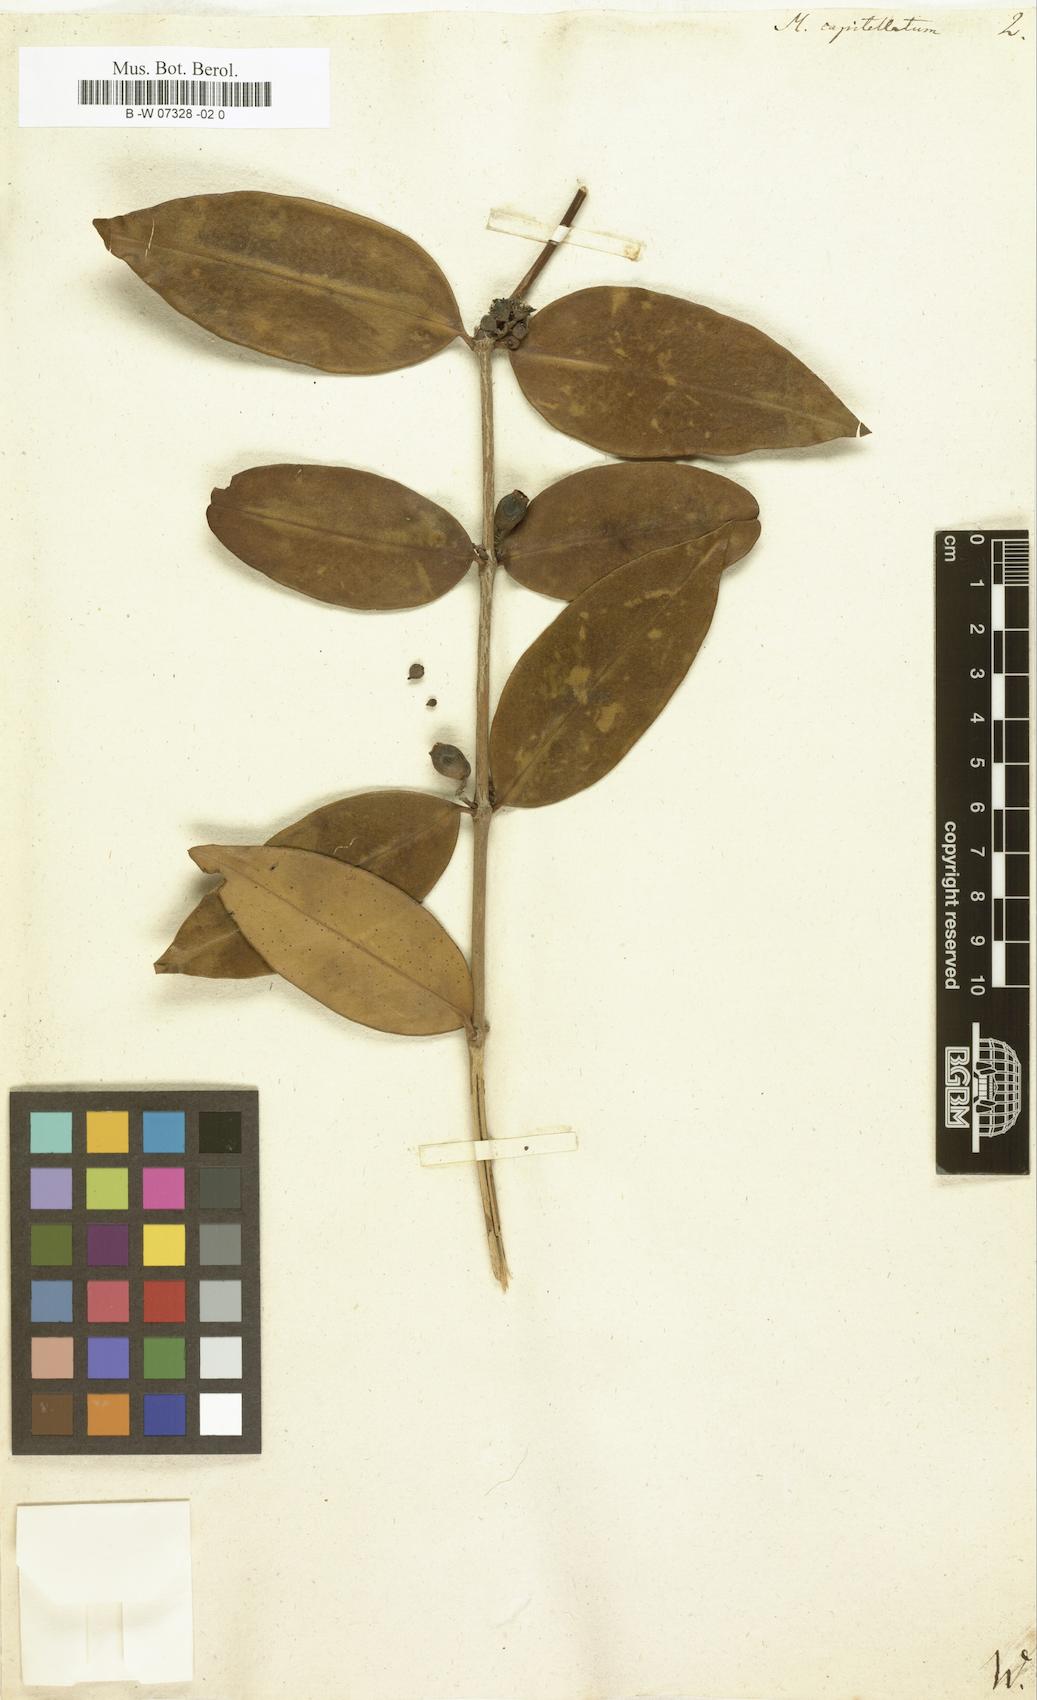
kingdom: Plantae
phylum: Tracheophyta
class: Magnoliopsida
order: Myrtales
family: Melastomataceae
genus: Memecylon
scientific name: Memecylon capitellatum
